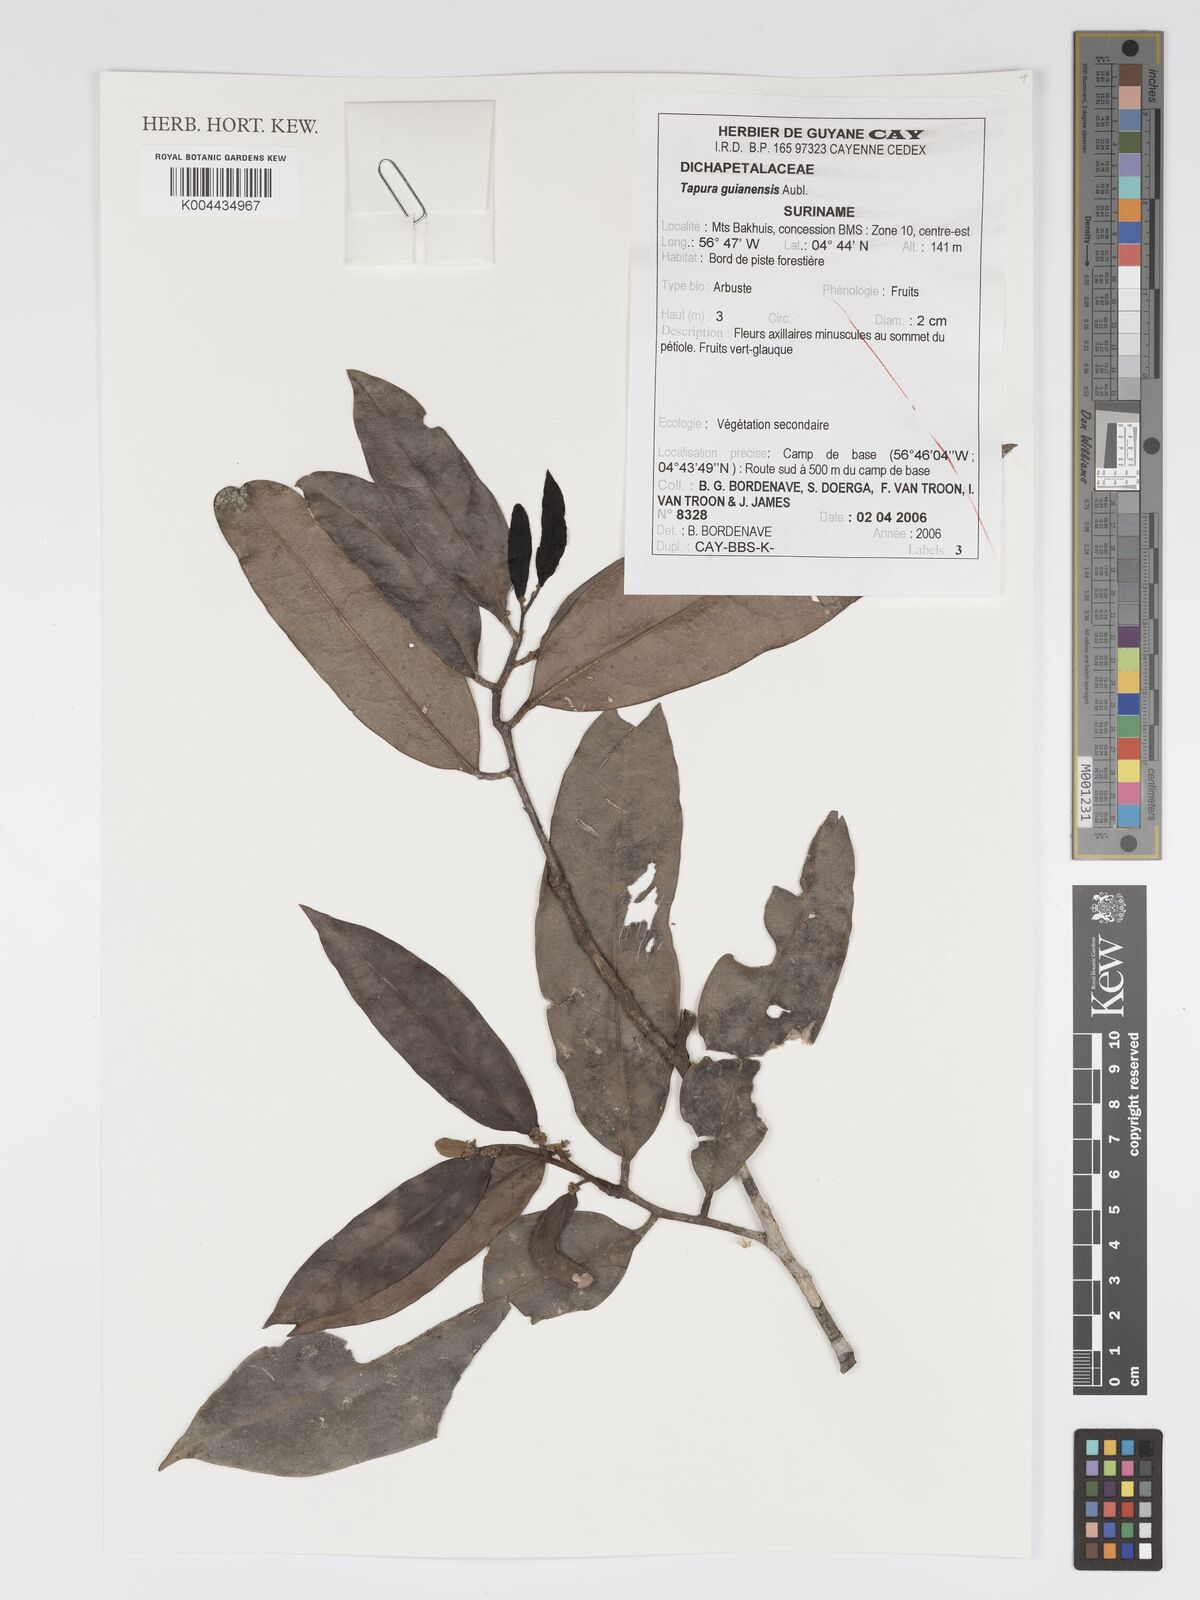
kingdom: Plantae
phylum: Tracheophyta
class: Magnoliopsida
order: Malpighiales
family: Dichapetalaceae
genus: Tapura
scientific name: Tapura guianensis
